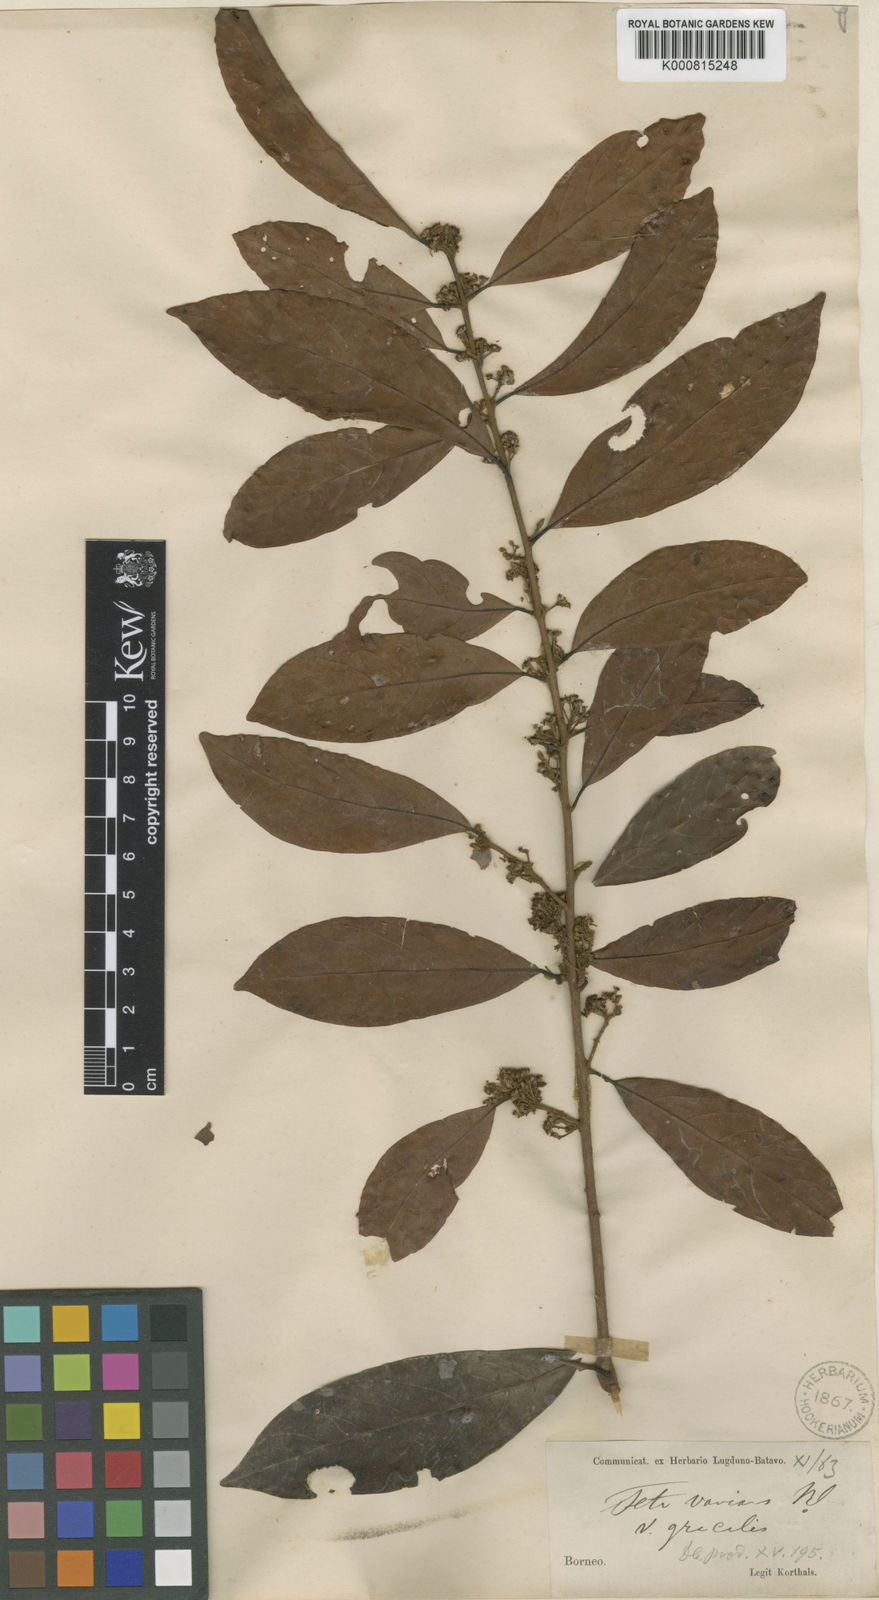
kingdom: Plantae
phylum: Tracheophyta
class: Magnoliopsida
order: Laurales
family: Lauraceae
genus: Litsea
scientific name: Litsea varians
